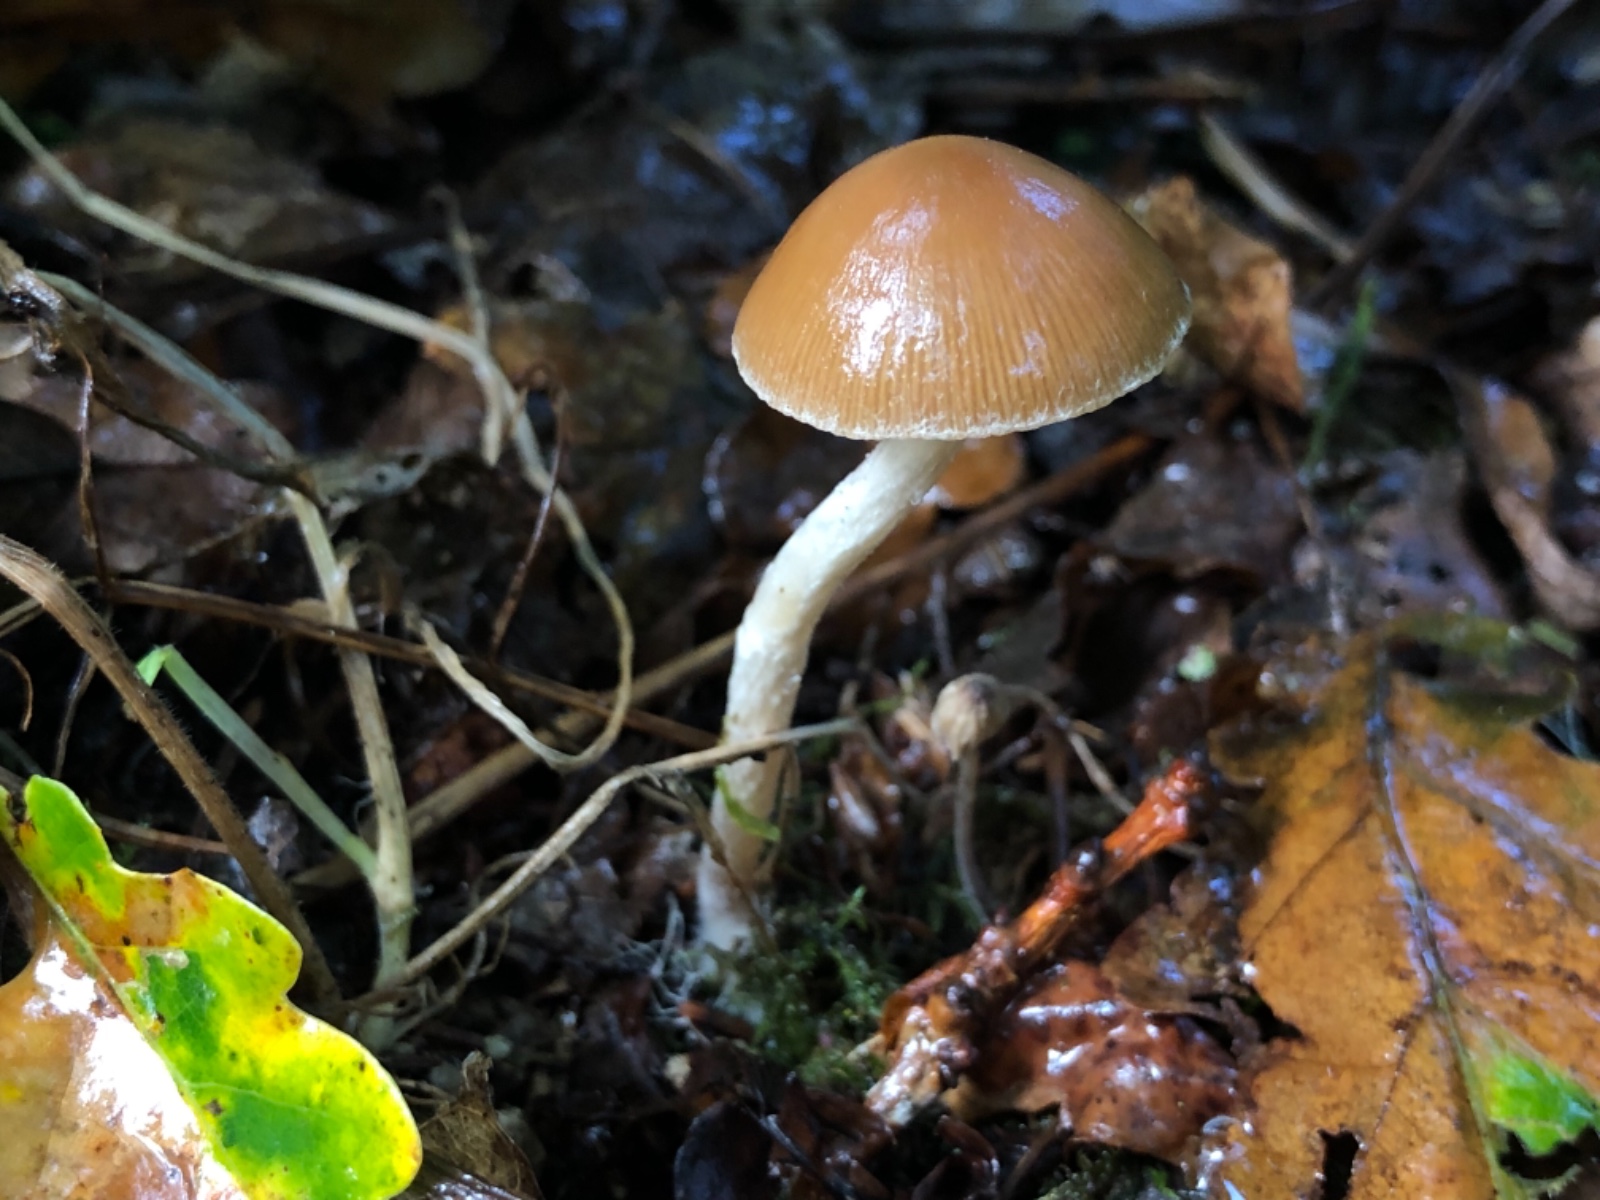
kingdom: Fungi
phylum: Basidiomycota
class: Agaricomycetes
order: Agaricales
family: Psathyrellaceae
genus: Psathyrella
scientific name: Psathyrella piluliformis
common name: lysstokket mørkhat
